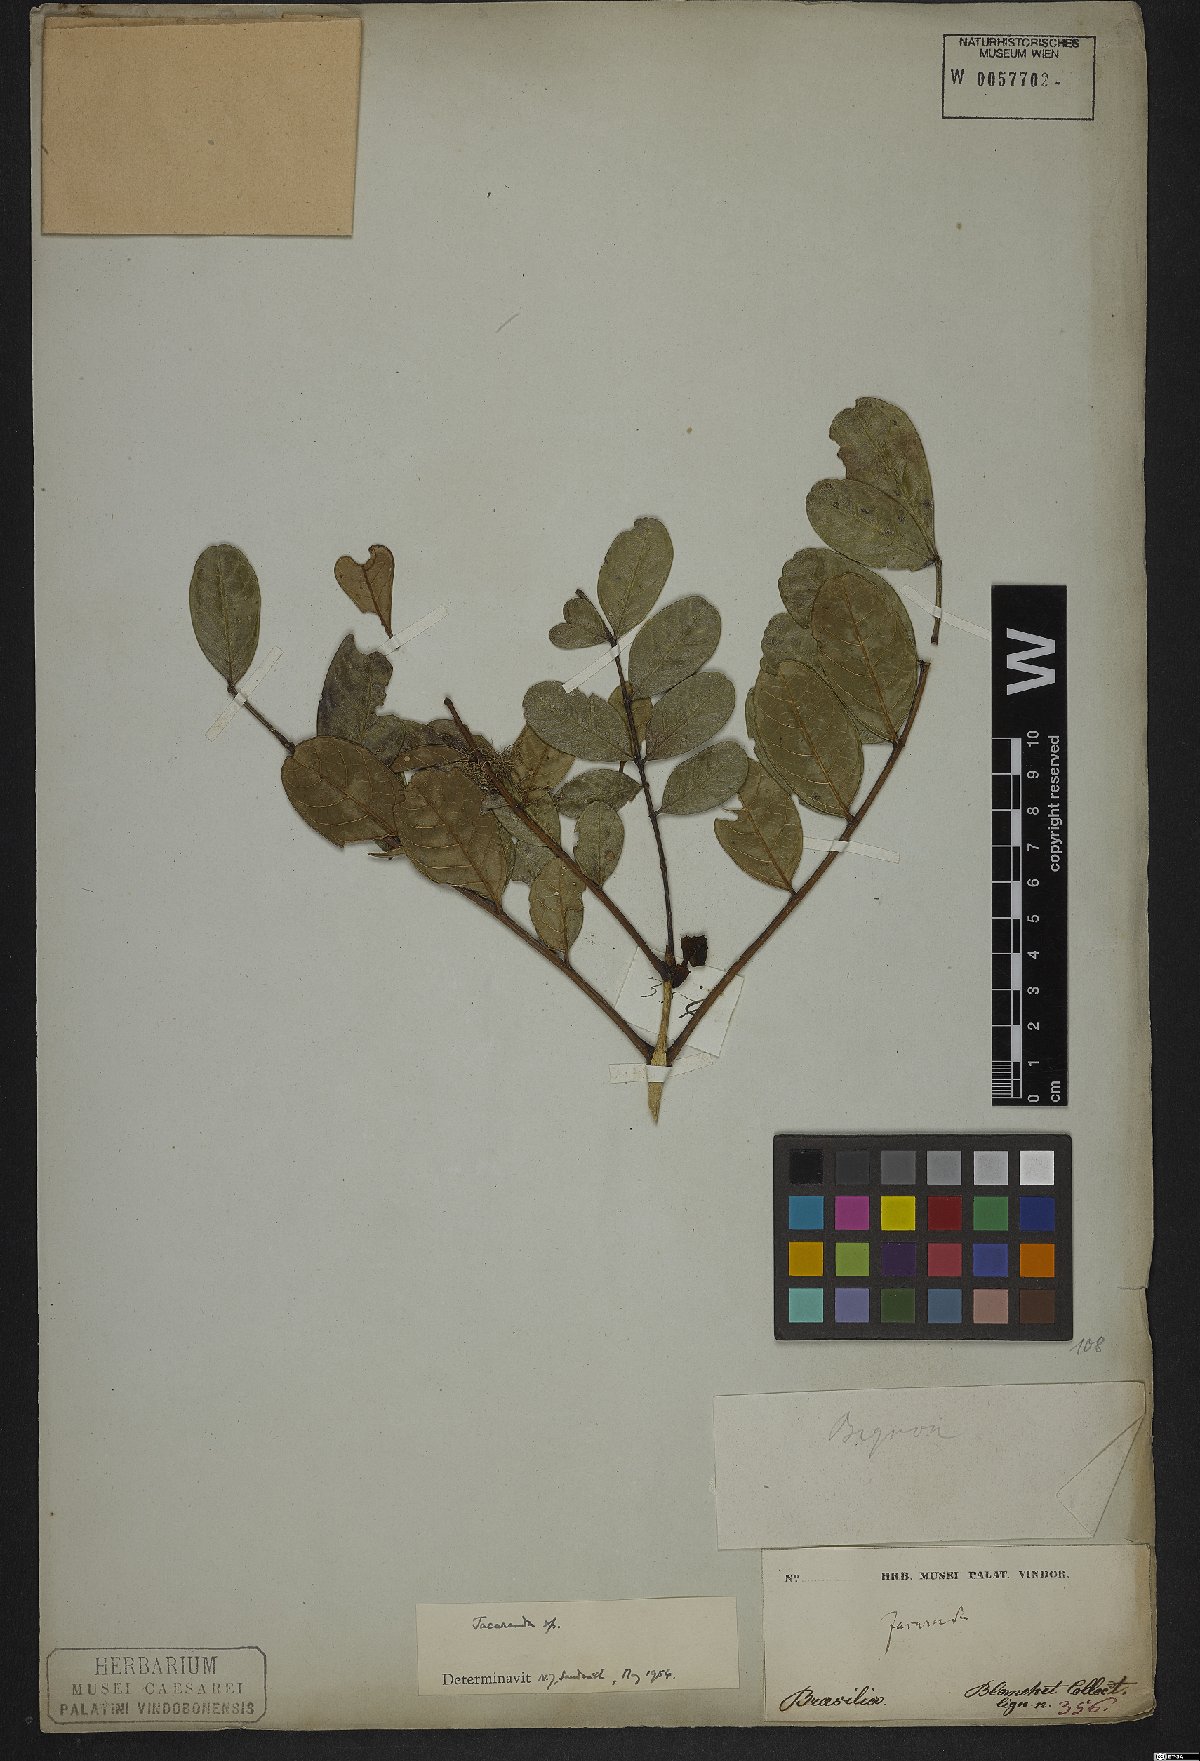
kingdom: Plantae
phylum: Tracheophyta
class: Magnoliopsida
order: Lamiales
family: Bignoniaceae
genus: Jacaranda
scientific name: Jacaranda
